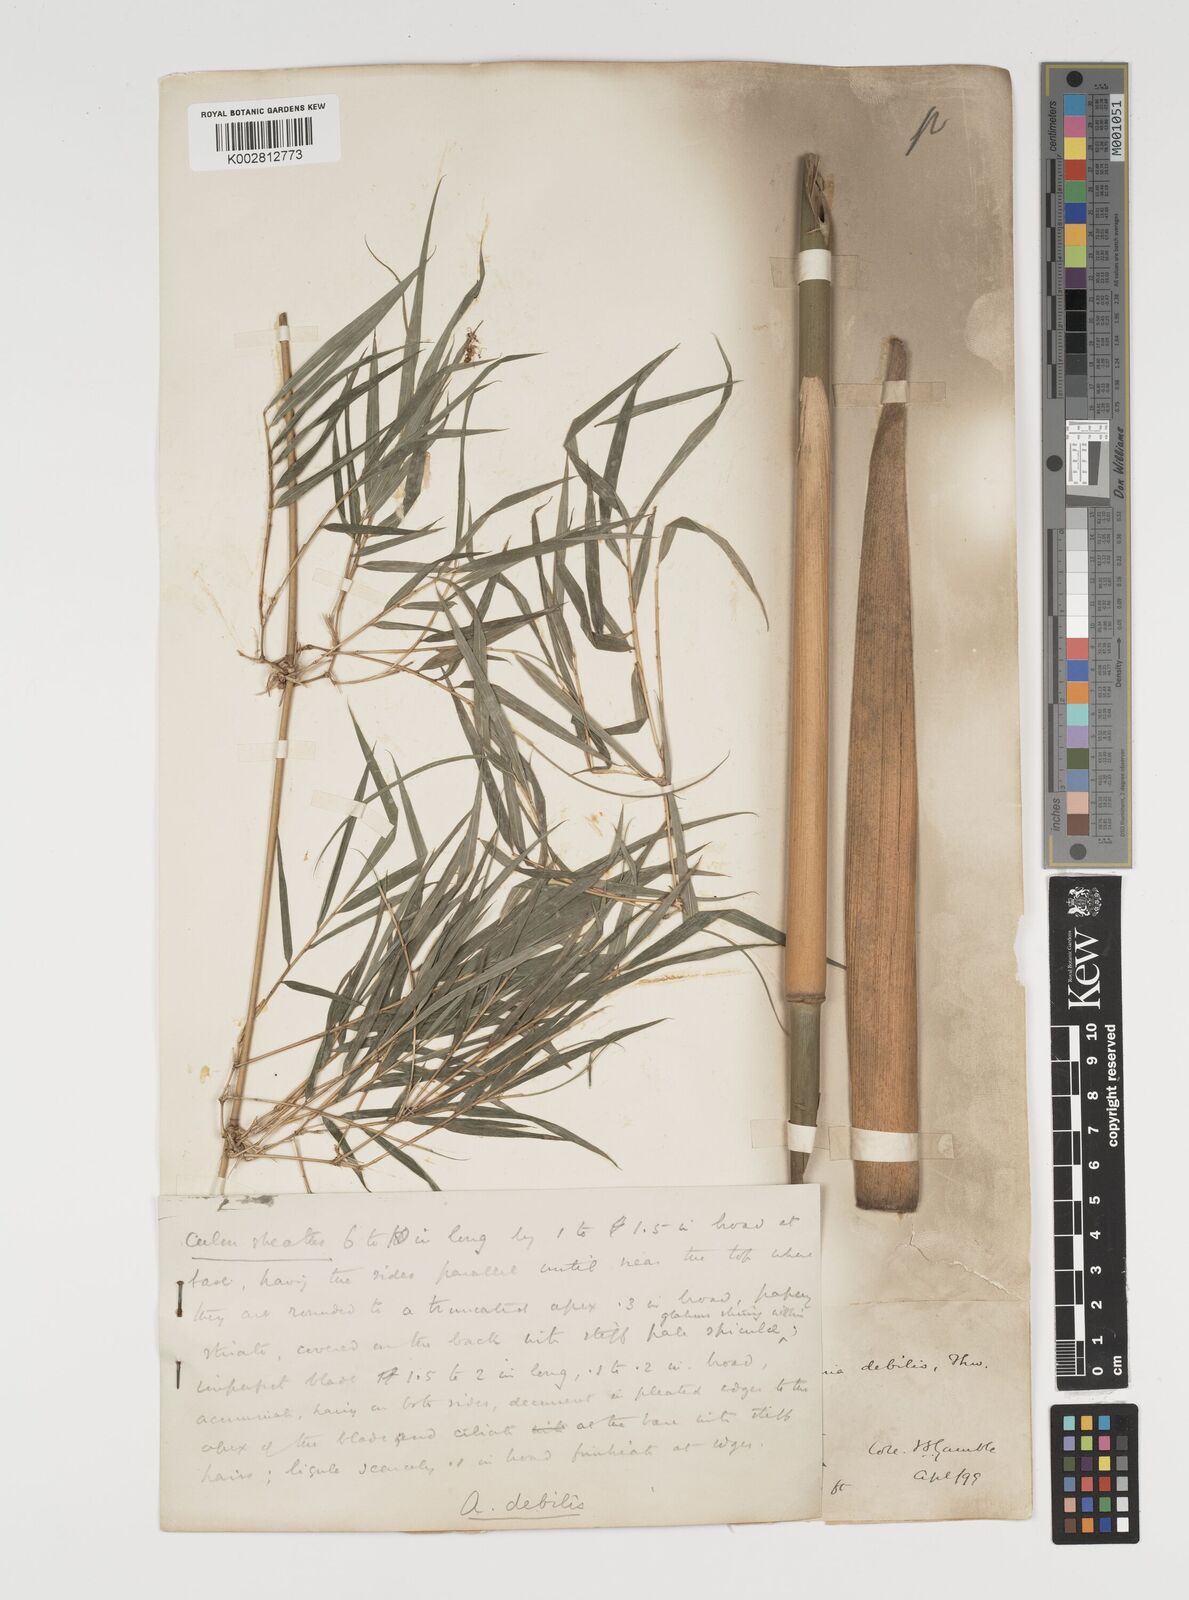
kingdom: Plantae
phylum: Tracheophyta
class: Liliopsida
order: Poales
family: Poaceae
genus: Kuruna
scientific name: Kuruna debilis
